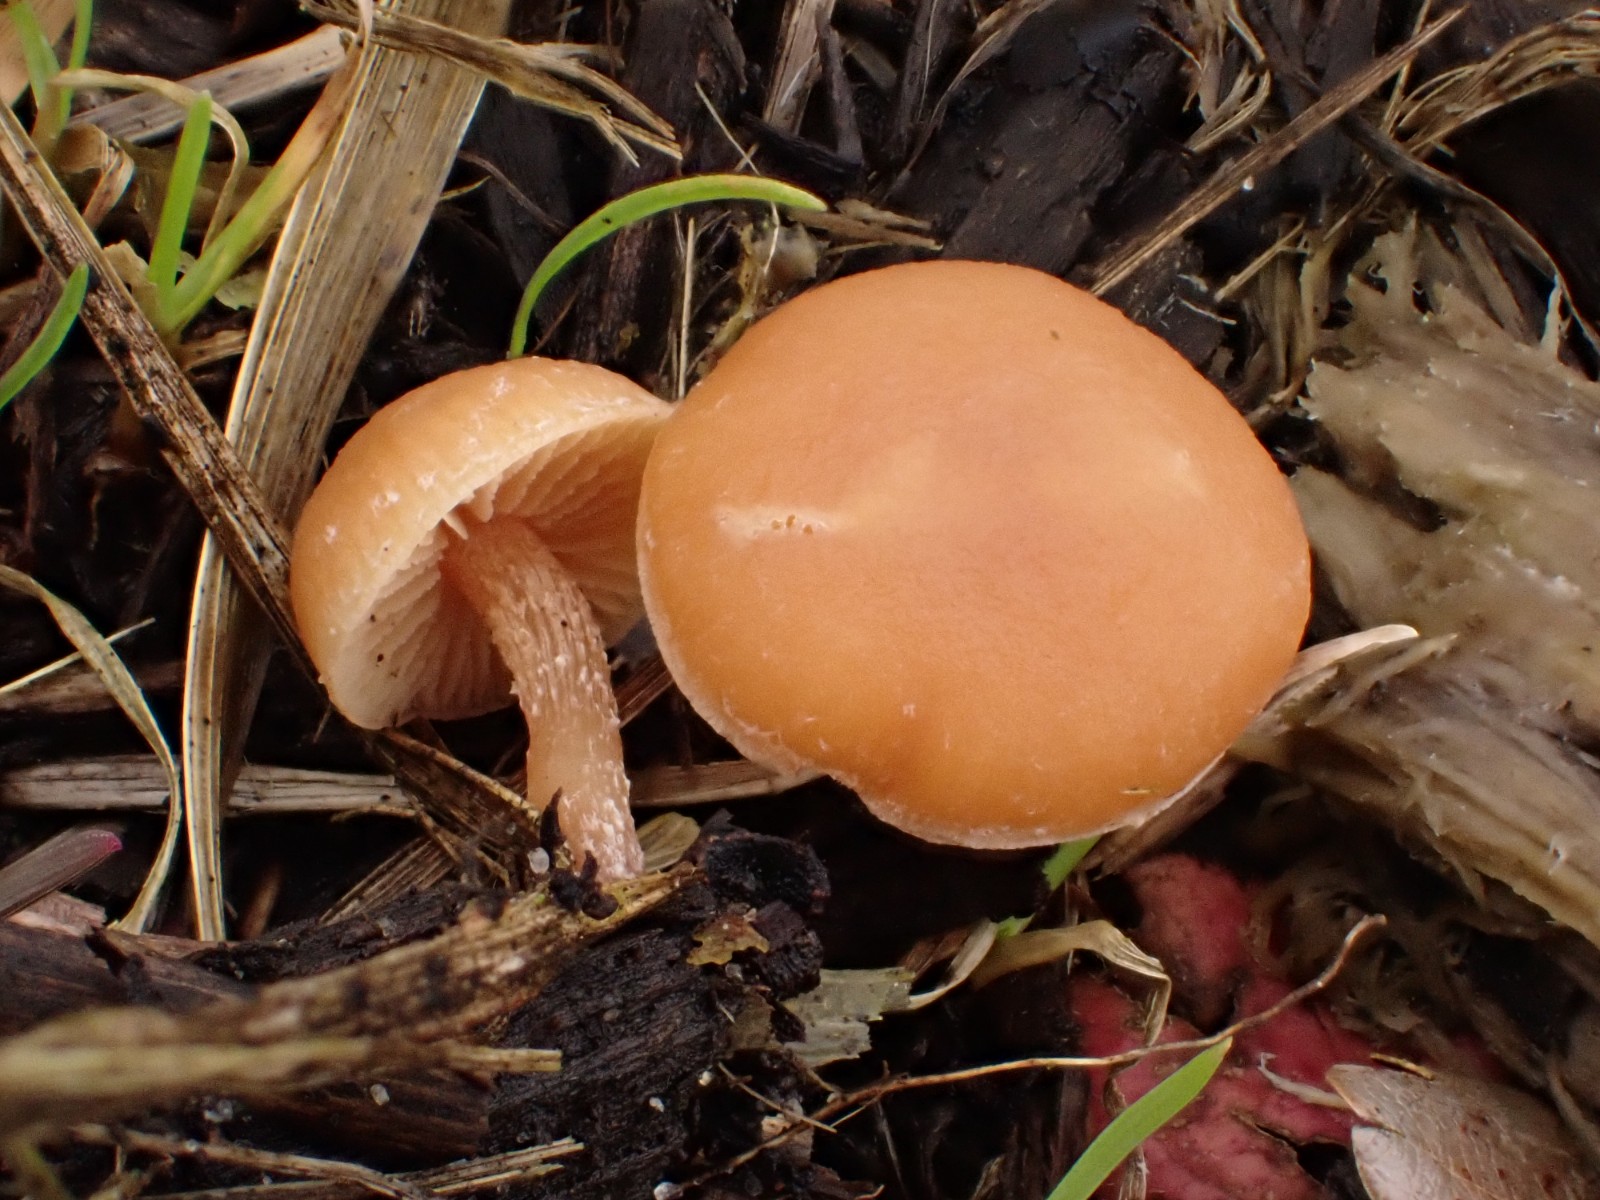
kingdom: Fungi
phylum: Basidiomycota
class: Agaricomycetes
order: Agaricales
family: Tubariaceae
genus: Tubaria
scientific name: Tubaria furfuracea
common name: kliddet fnughat
